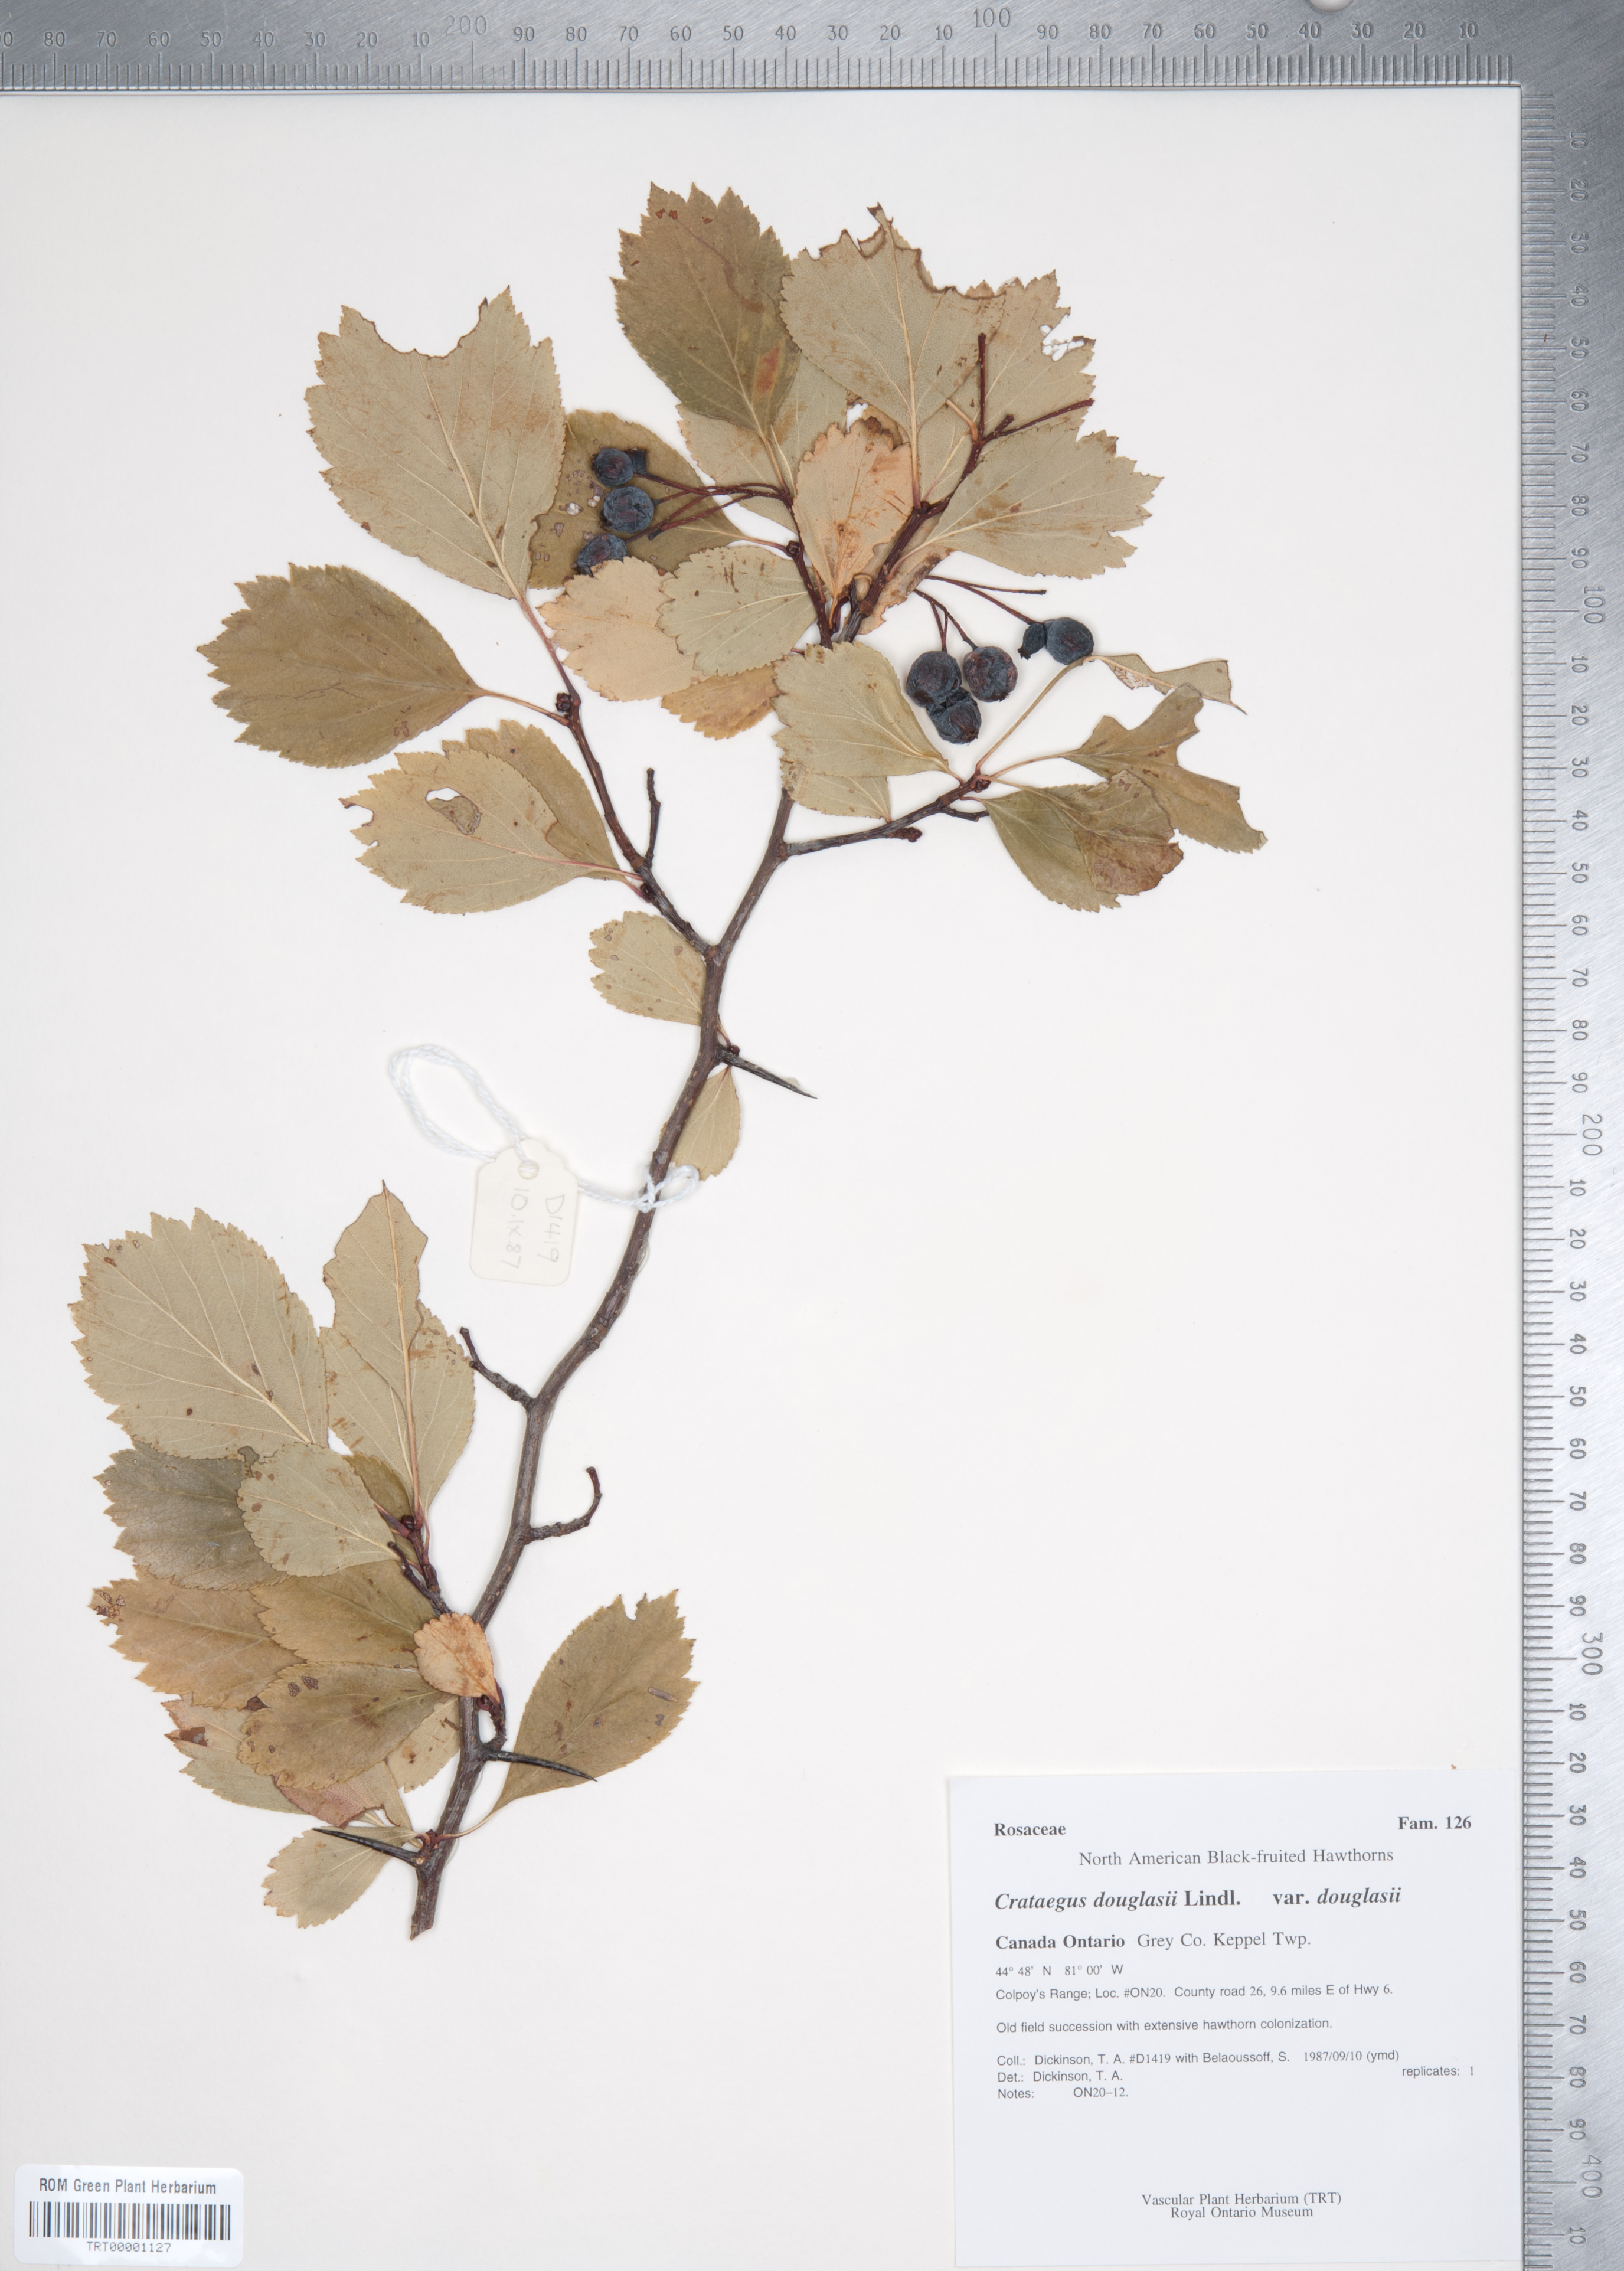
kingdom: Plantae
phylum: Tracheophyta
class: Magnoliopsida
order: Rosales
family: Rosaceae
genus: Crataegus
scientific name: Crataegus douglasii
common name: Black hawthorn
